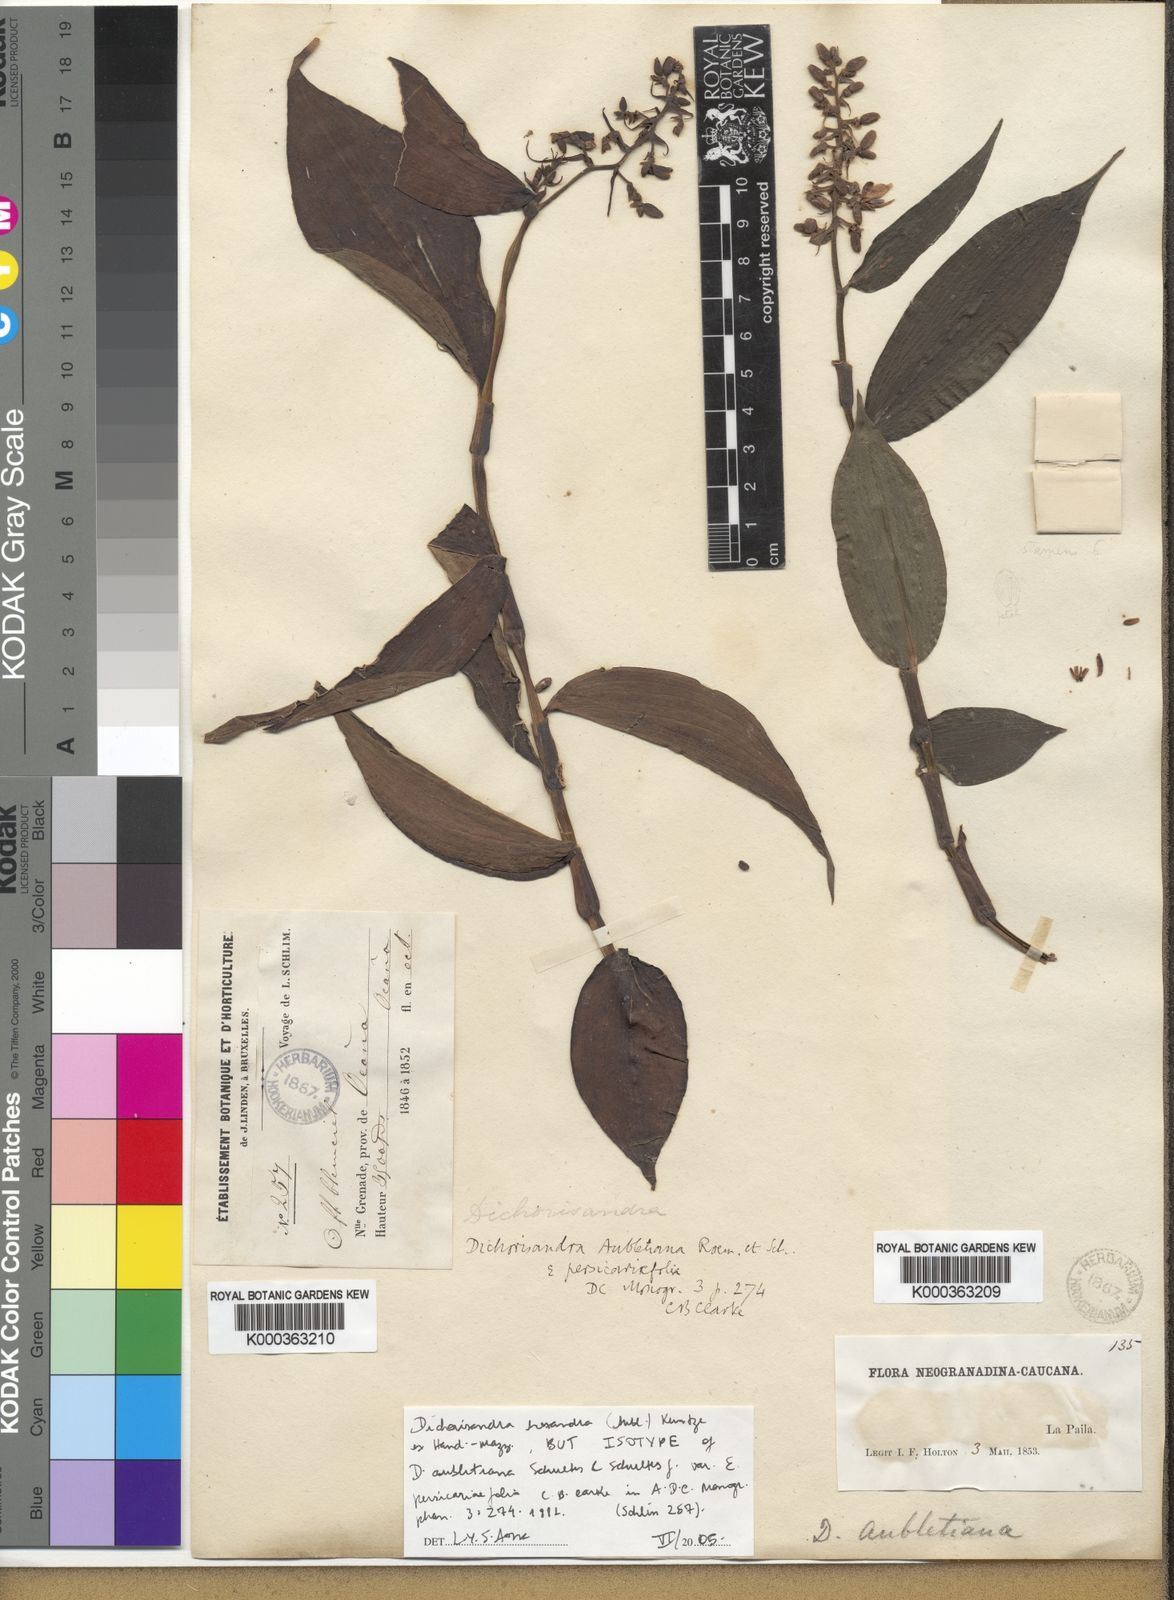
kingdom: Plantae
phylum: Tracheophyta
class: Liliopsida
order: Commelinales
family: Commelinaceae
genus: Dichorisandra
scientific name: Dichorisandra
